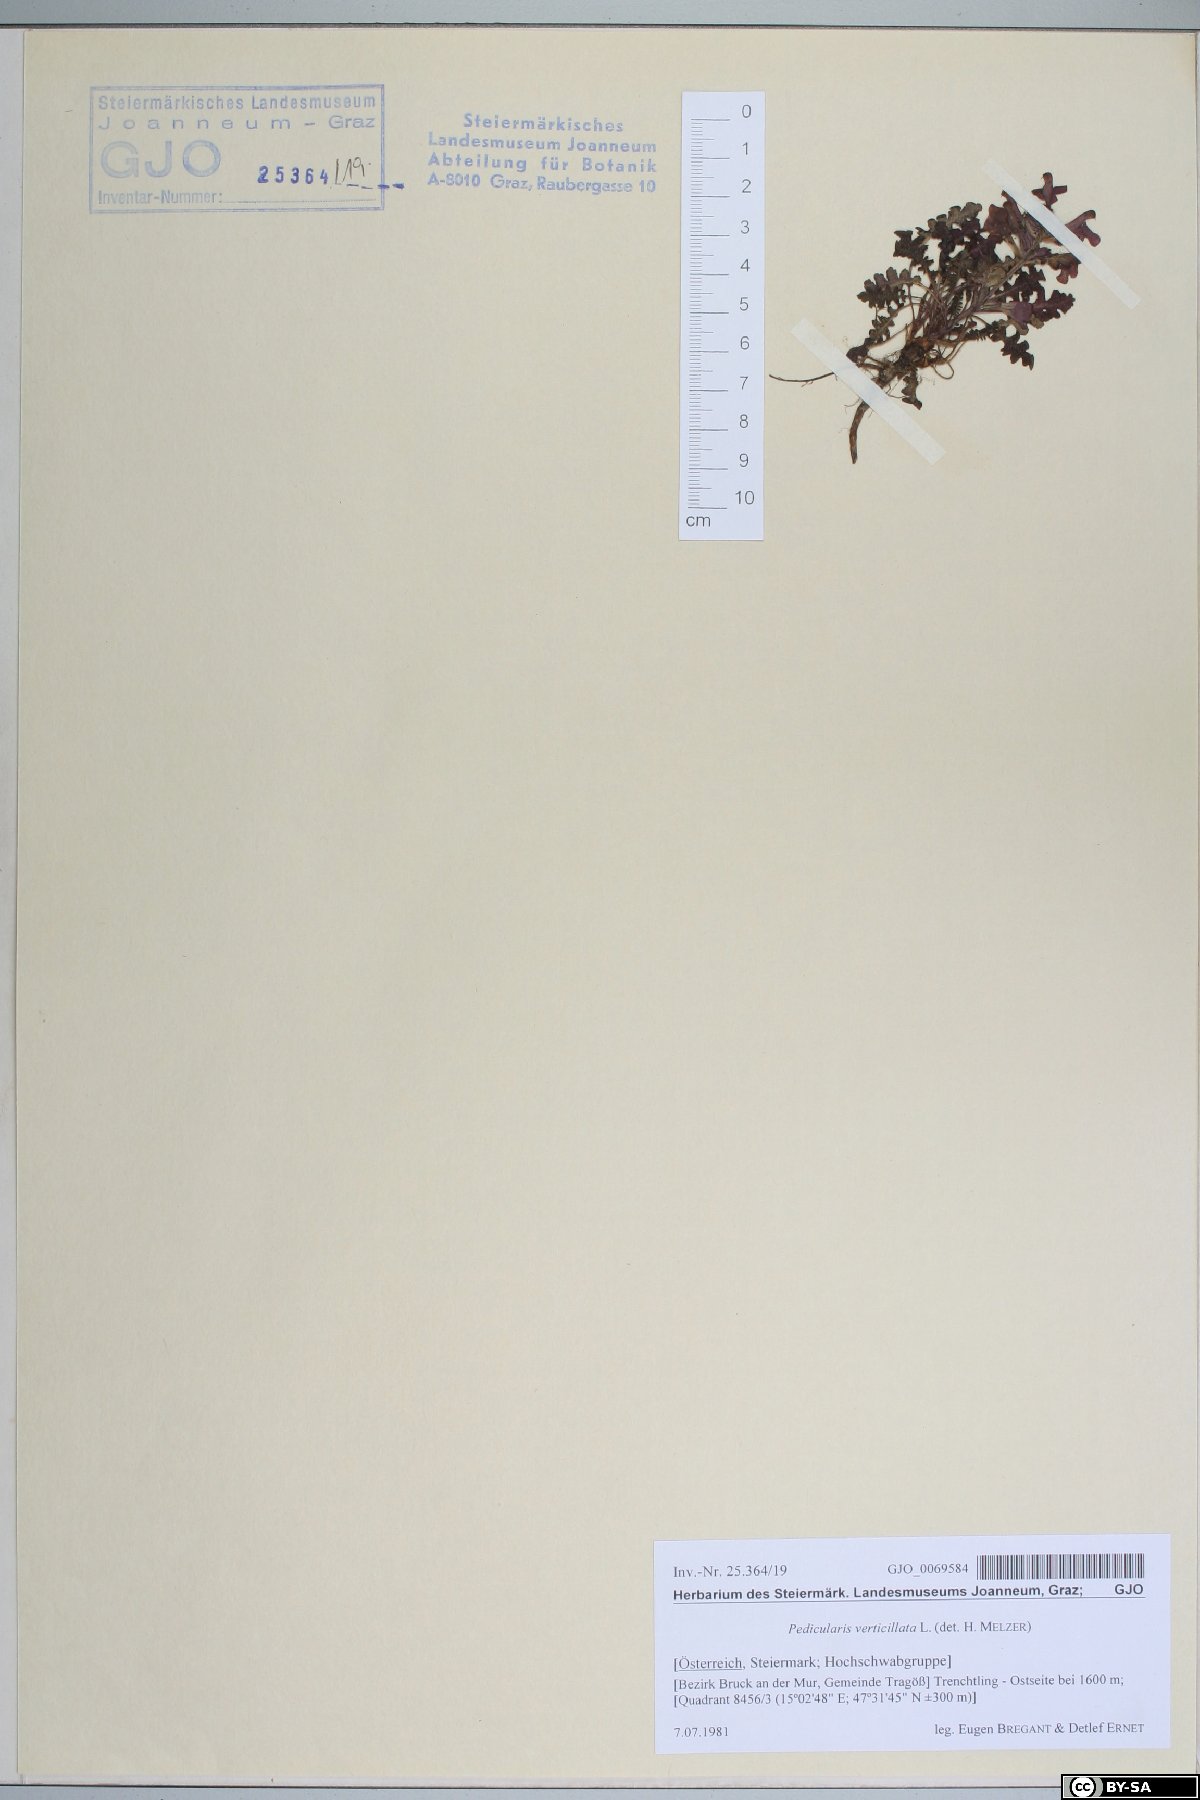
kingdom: Plantae
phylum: Tracheophyta
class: Magnoliopsida
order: Lamiales
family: Orobanchaceae
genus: Pedicularis
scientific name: Pedicularis verticillata
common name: Whorled lousewort
